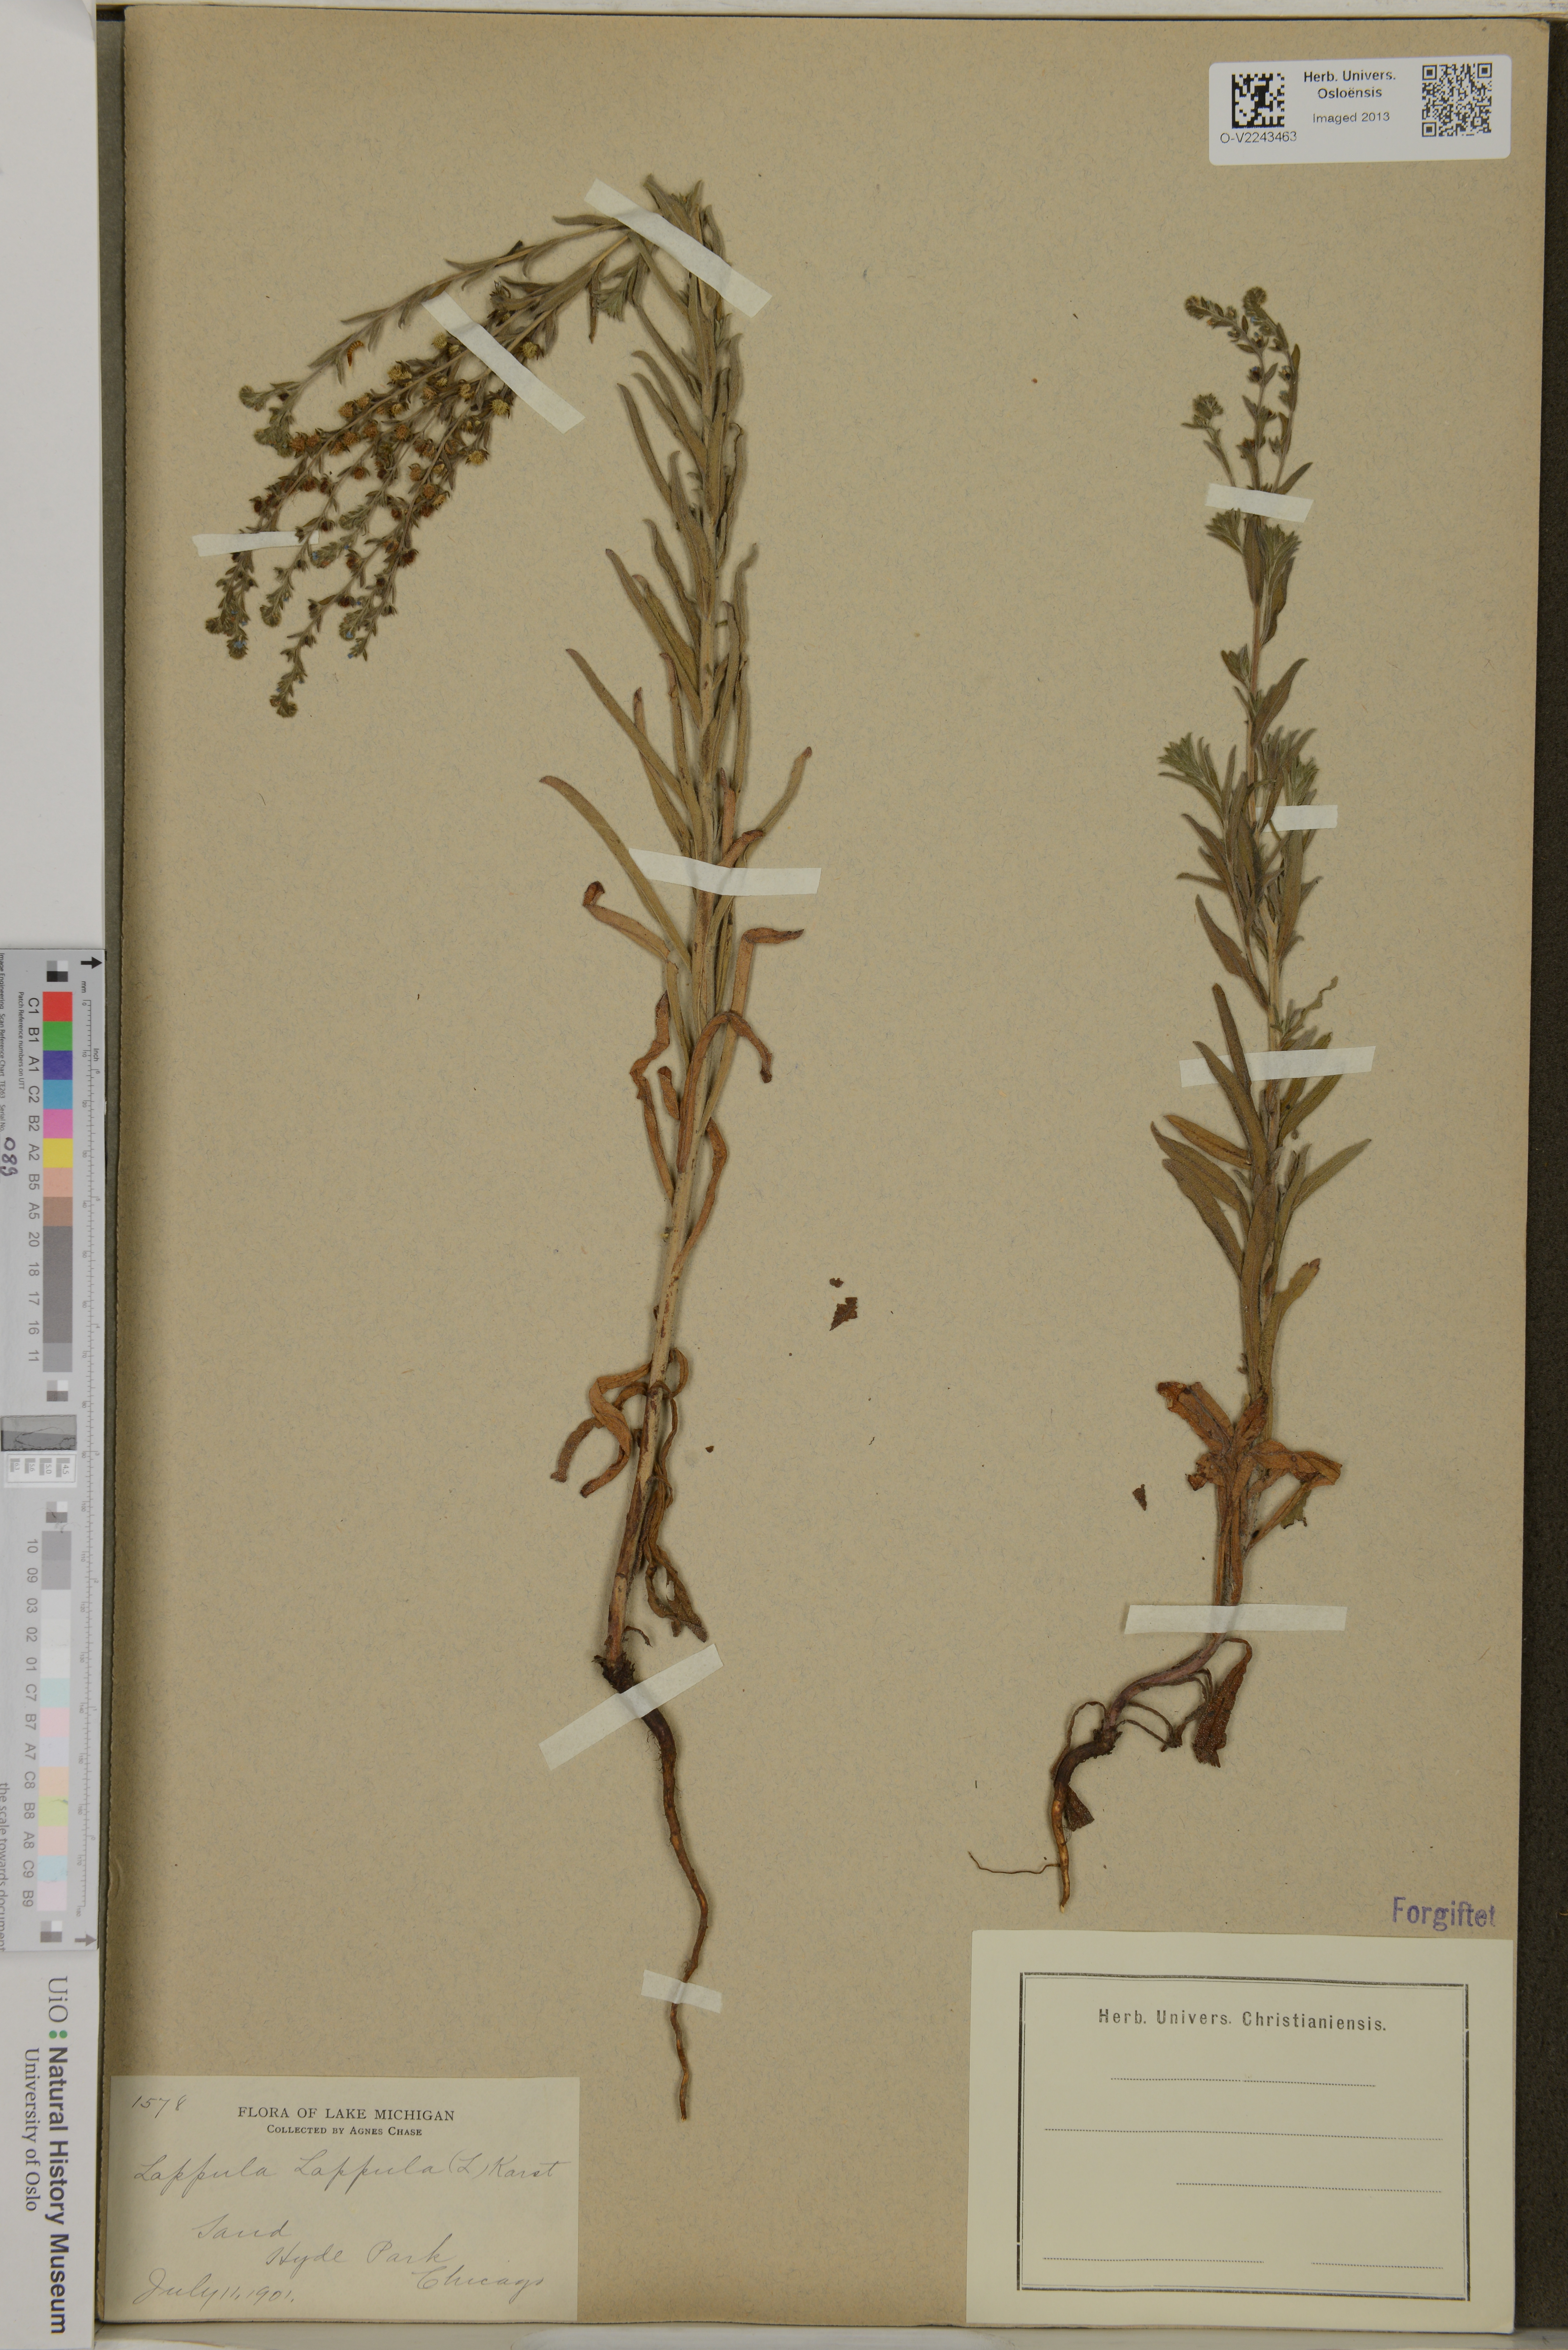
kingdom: Plantae
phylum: Tracheophyta
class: Magnoliopsida
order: Boraginales
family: Boraginaceae
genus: Lappula
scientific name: Lappula squarrosa
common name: European stickseed
